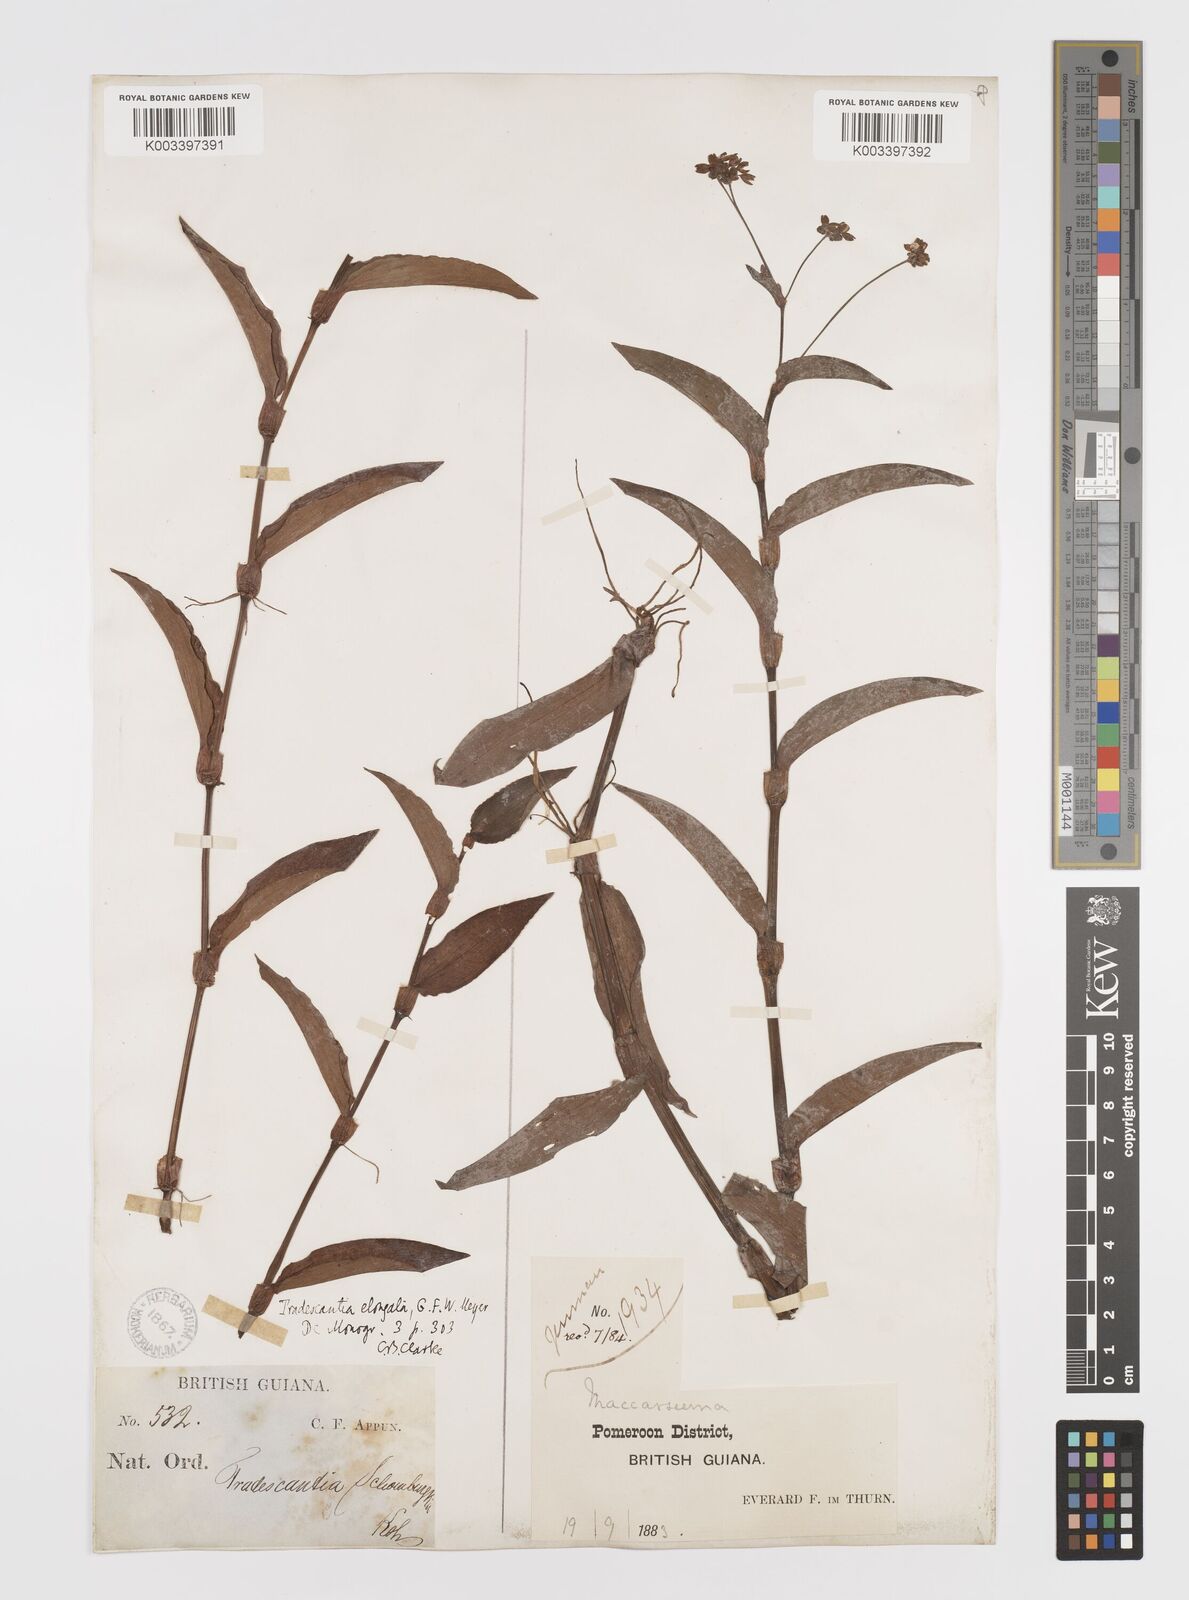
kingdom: Plantae
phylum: Tracheophyta
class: Liliopsida
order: Commelinales
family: Commelinaceae
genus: Callisia
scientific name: Callisia serrulata
